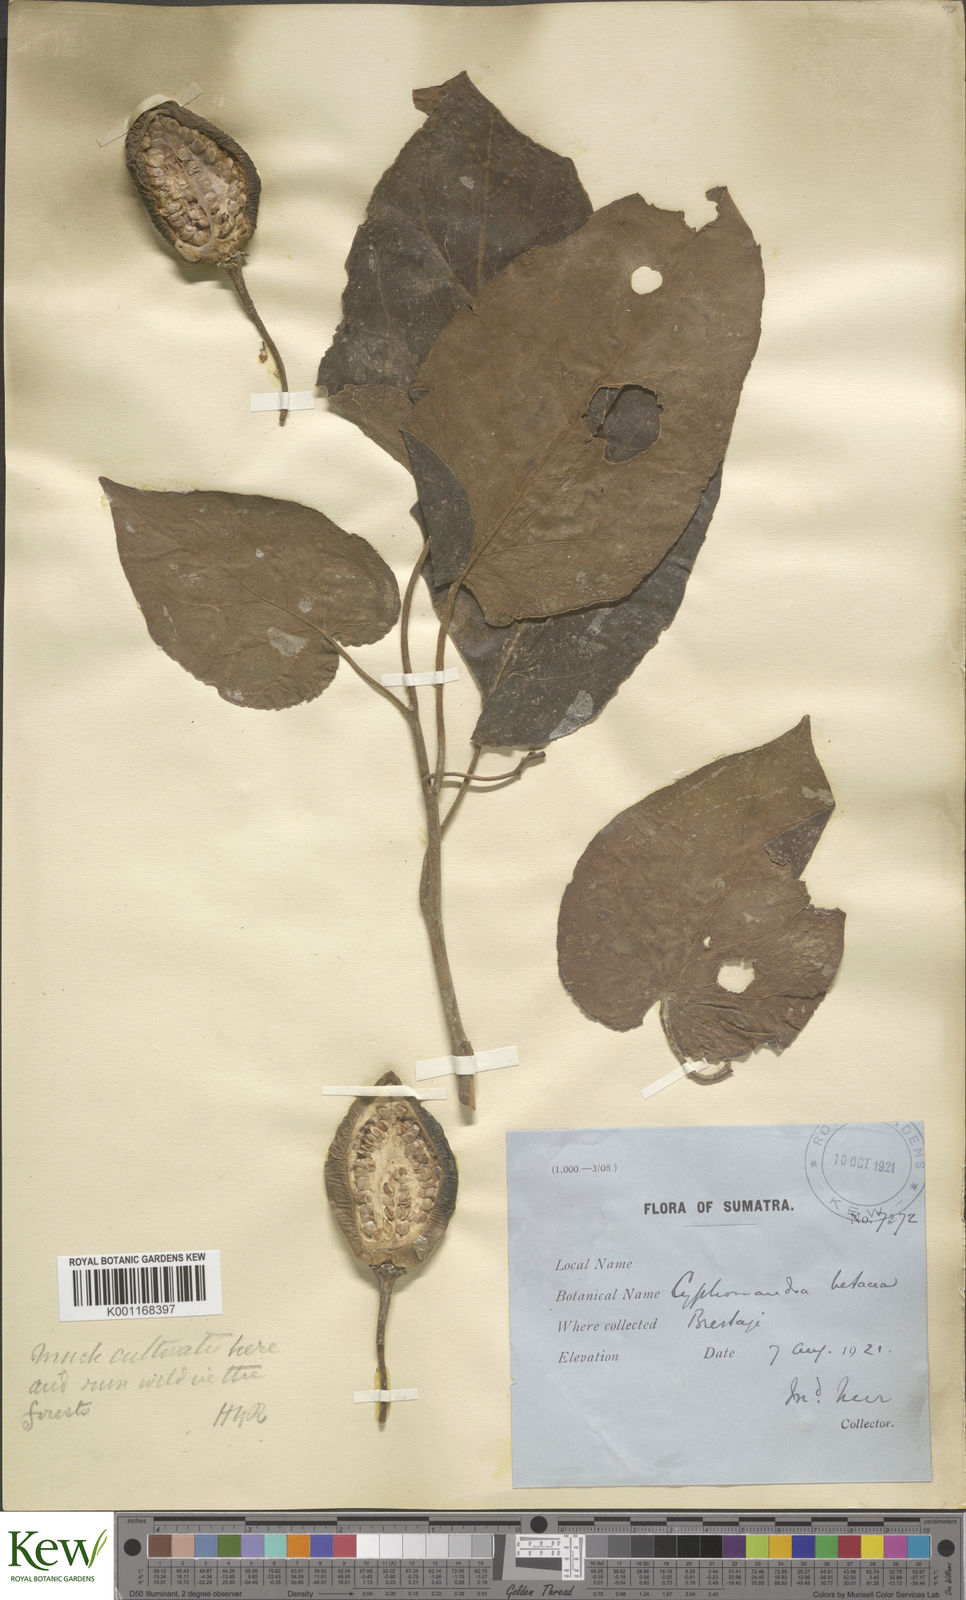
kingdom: Plantae
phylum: Tracheophyta
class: Magnoliopsida
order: Solanales
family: Solanaceae
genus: Solanum
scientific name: Solanum betaceum
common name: Tamarillo
